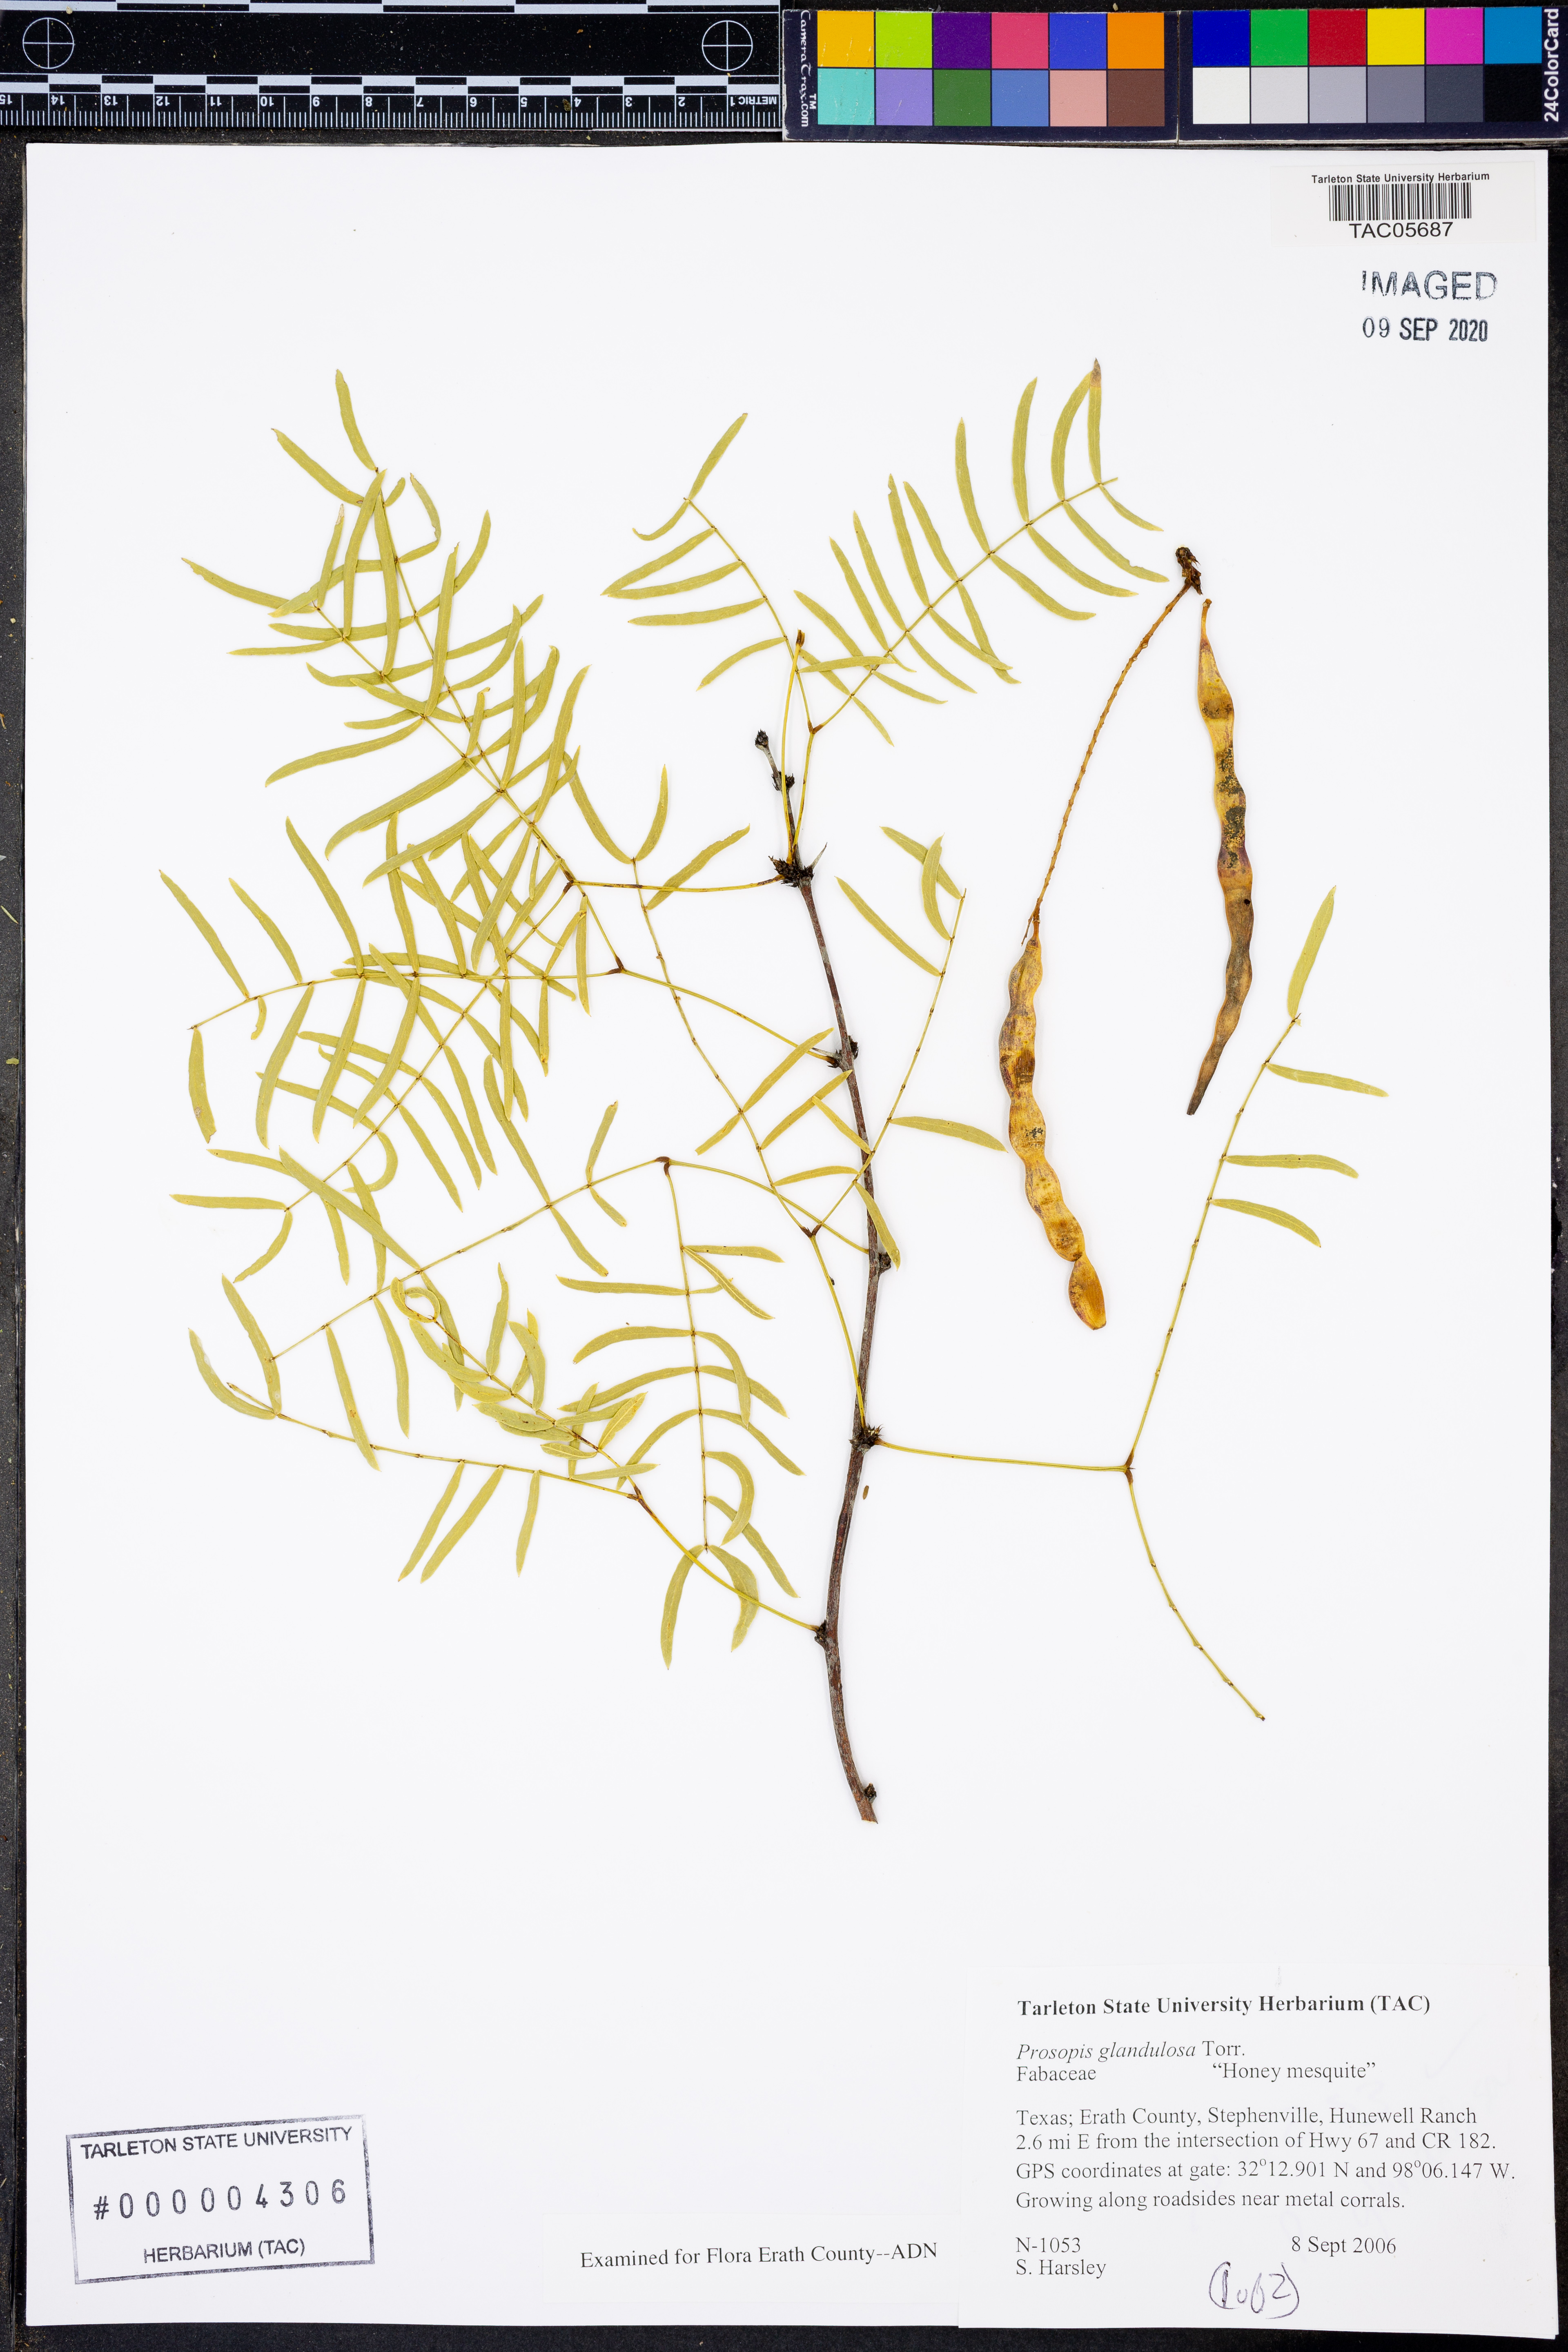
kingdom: Plantae
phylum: Tracheophyta
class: Magnoliopsida
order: Fabales
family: Fabaceae
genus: Prosopis
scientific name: Prosopis glandulosa
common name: Honey mesquite
